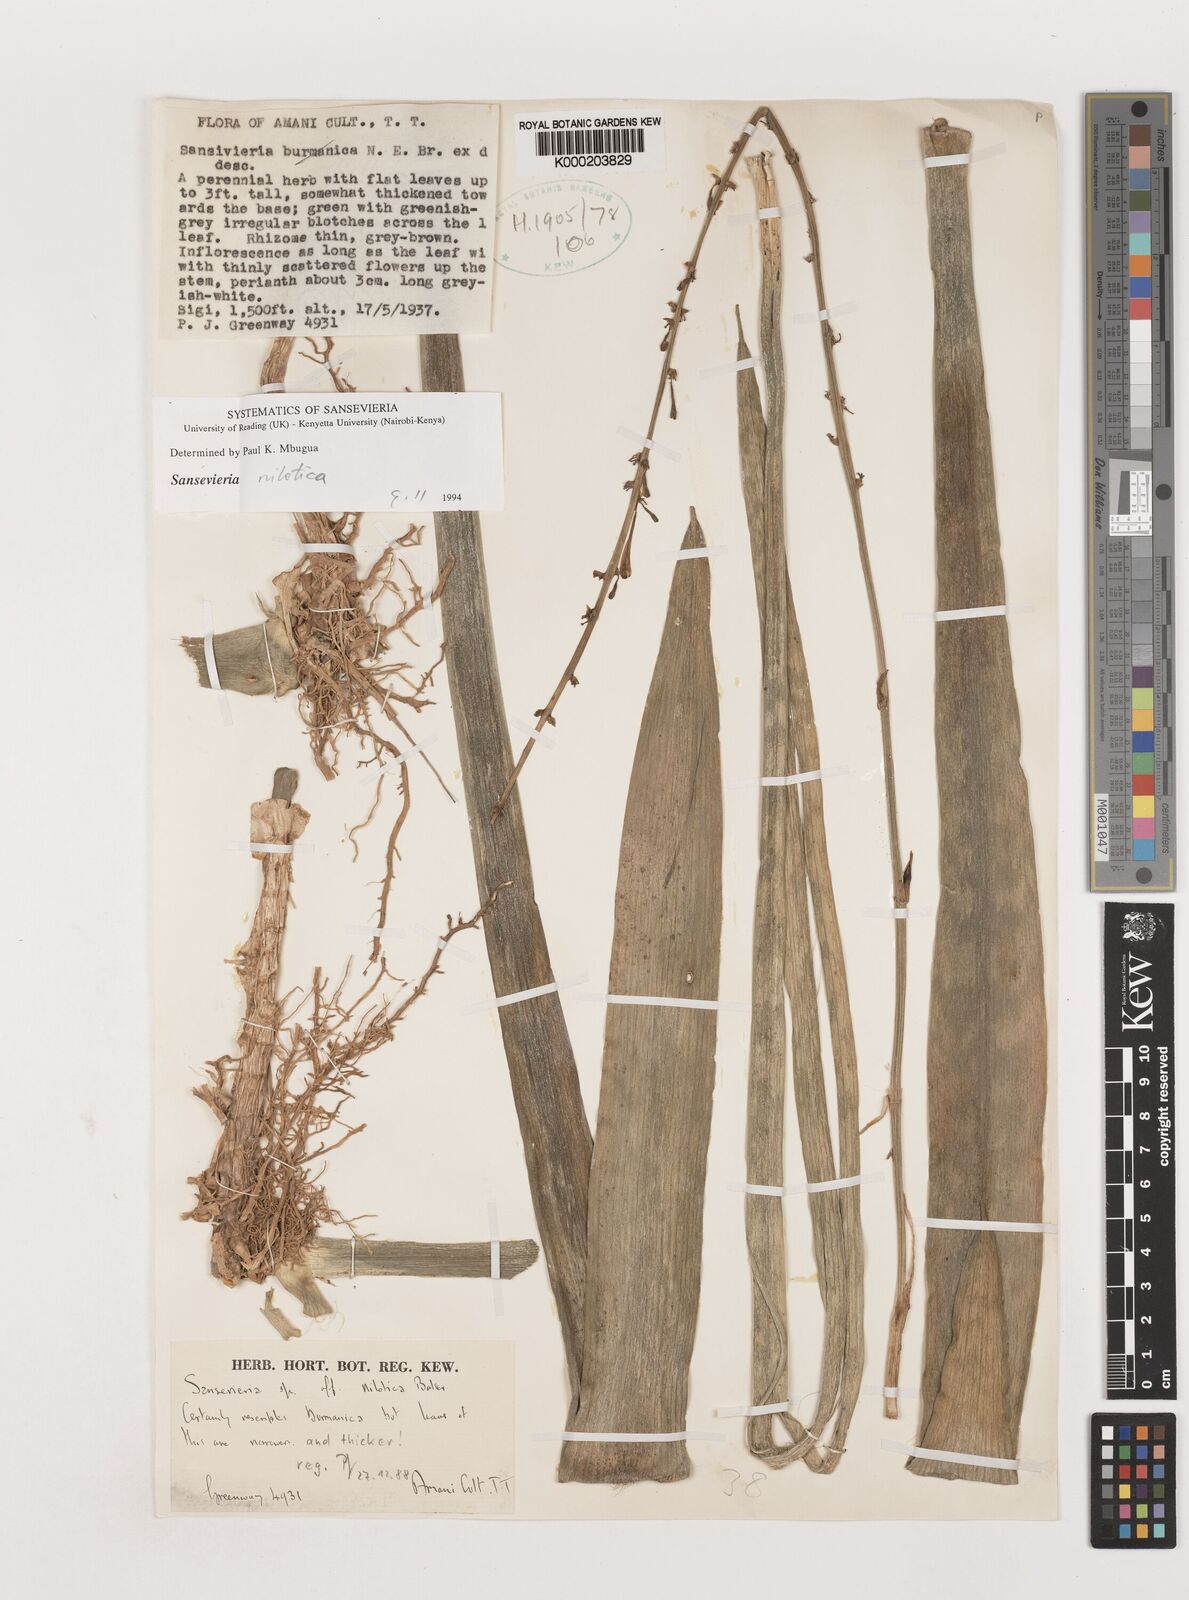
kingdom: Plantae
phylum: Tracheophyta
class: Liliopsida
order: Asparagales
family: Asparagaceae
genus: Dracaena
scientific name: Dracaena nilotica
